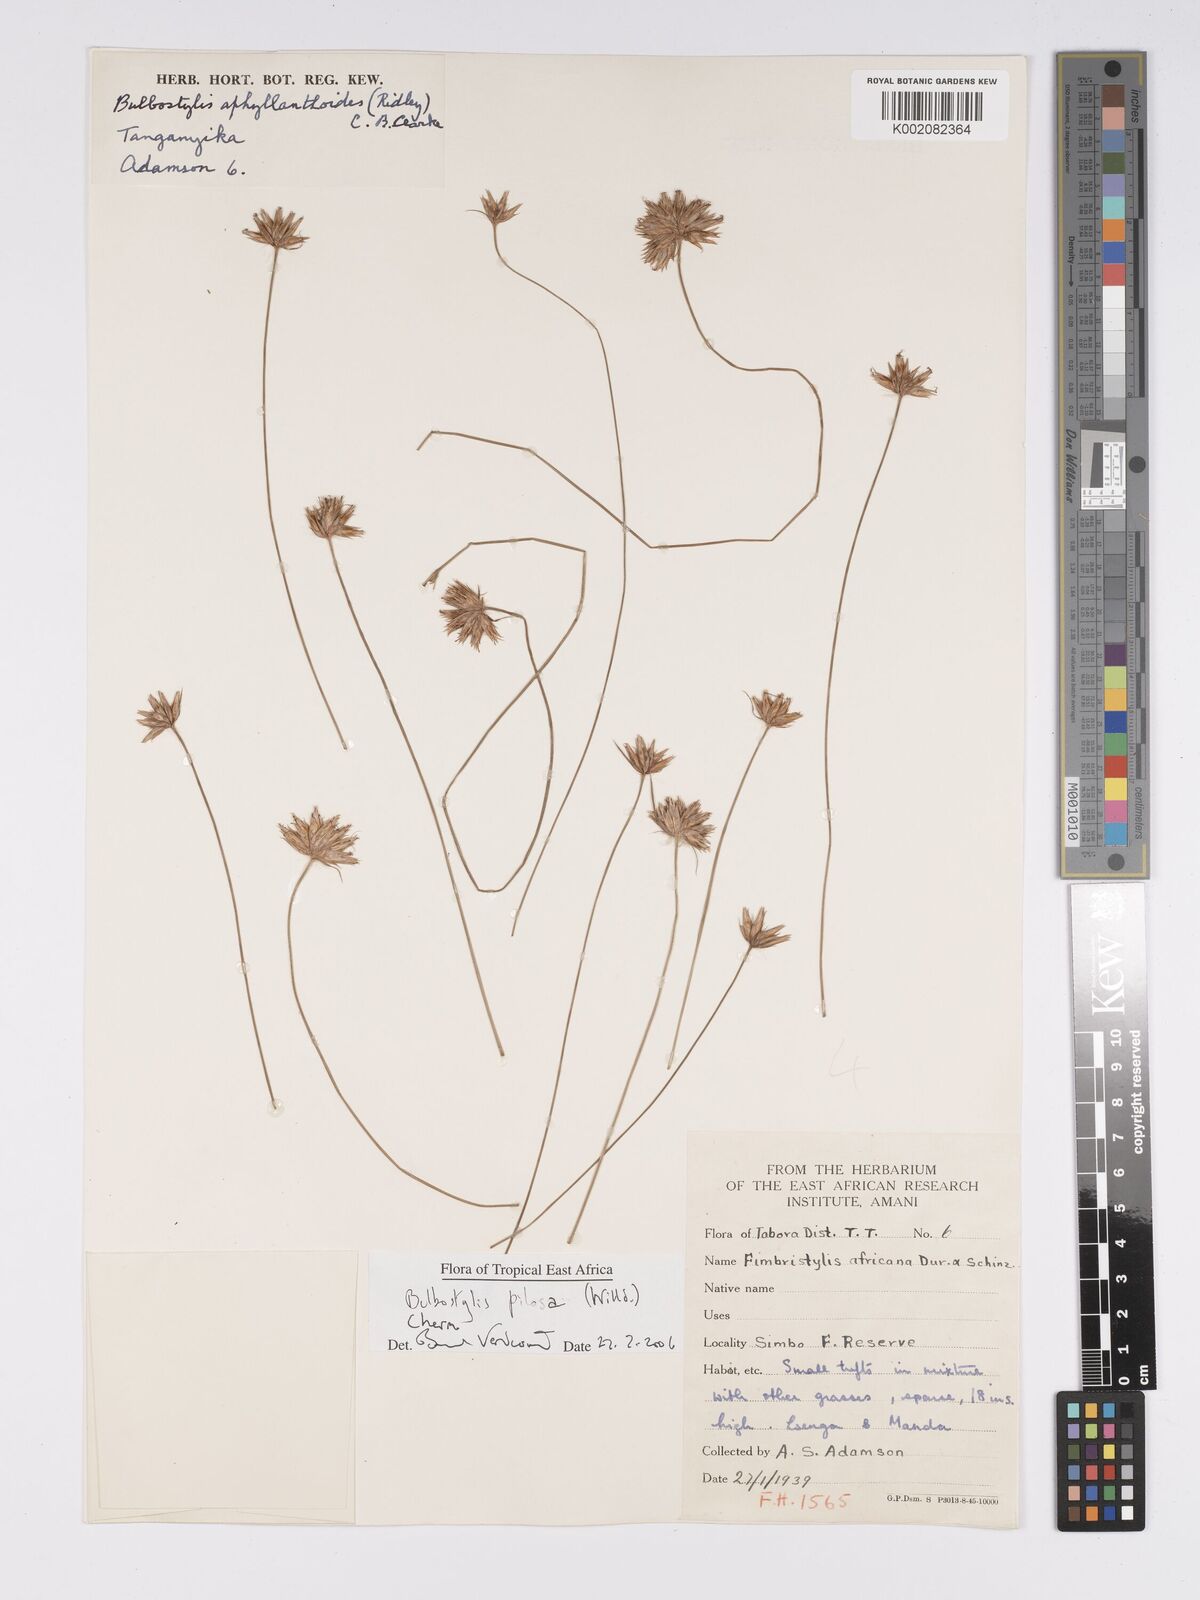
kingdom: Plantae
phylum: Tracheophyta
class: Liliopsida
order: Poales
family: Cyperaceae
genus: Bulbostylis
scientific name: Bulbostylis pilosa
